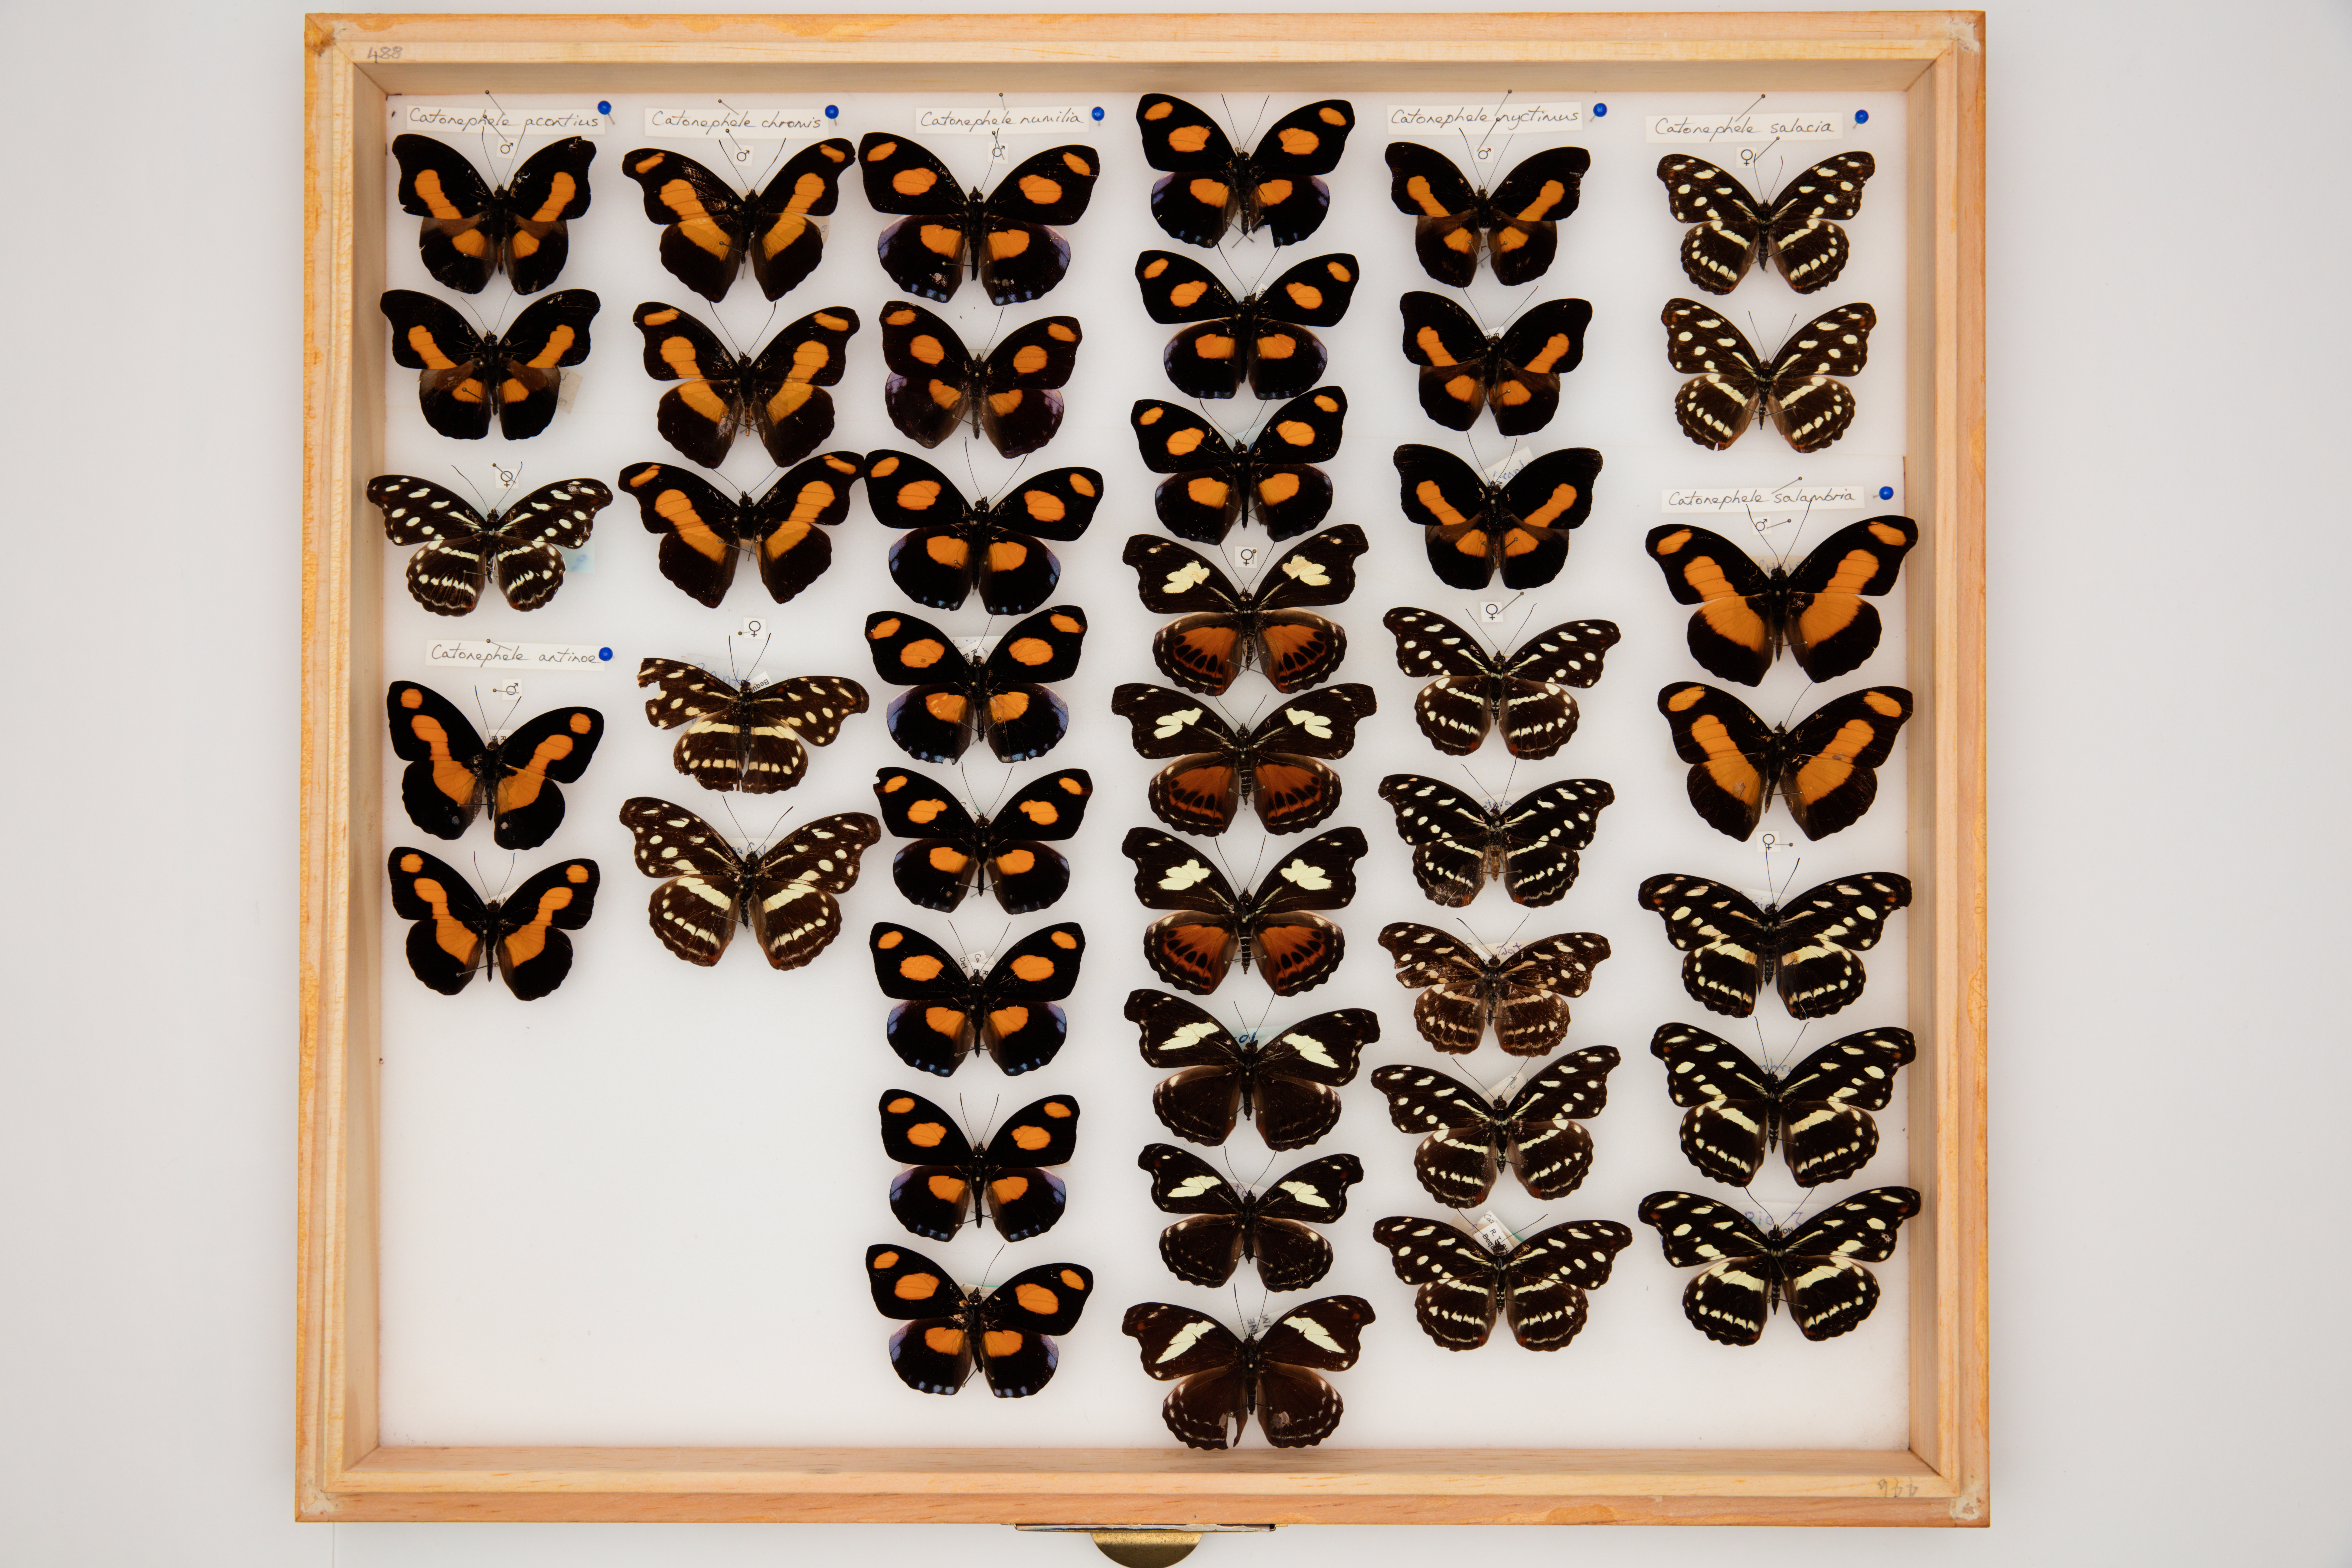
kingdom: Animalia
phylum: Arthropoda
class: Insecta
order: Lepidoptera
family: Nymphalidae
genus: Catonephele
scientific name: Catonephele salacia
